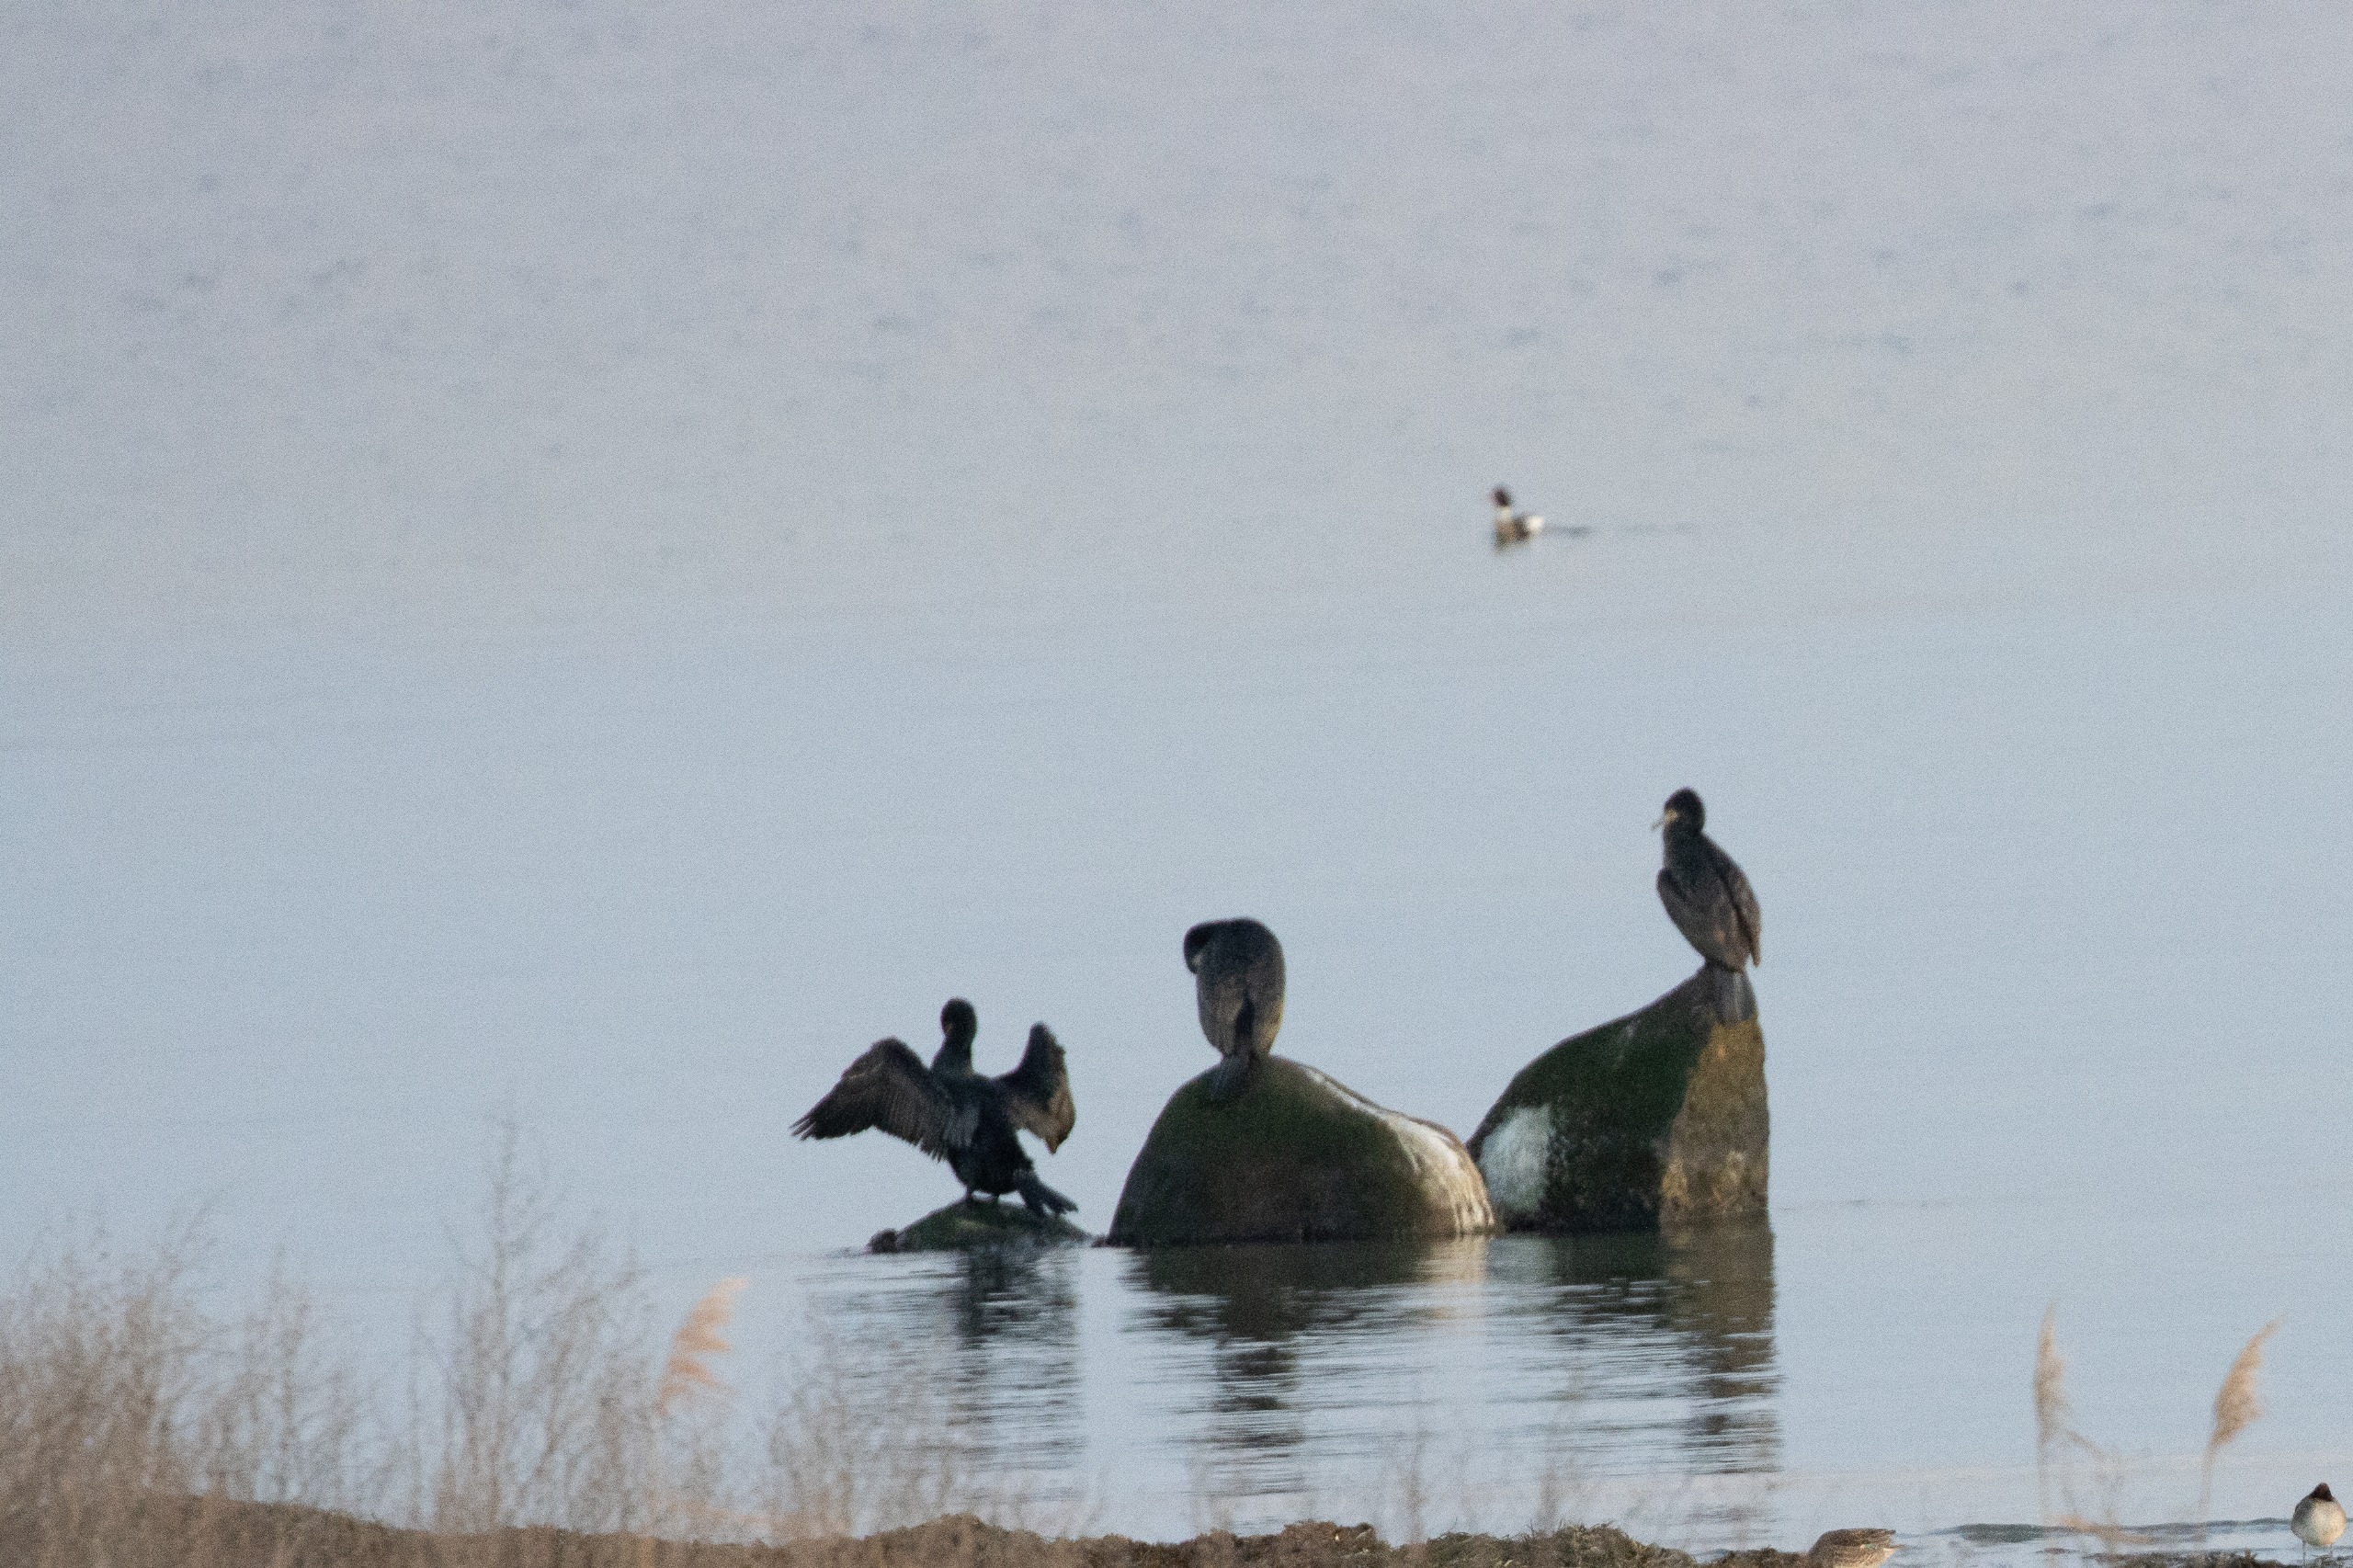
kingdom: Animalia
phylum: Chordata
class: Aves
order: Anseriformes
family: Anatidae
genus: Mergus
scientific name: Mergus serrator
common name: Toppet skallesluger
